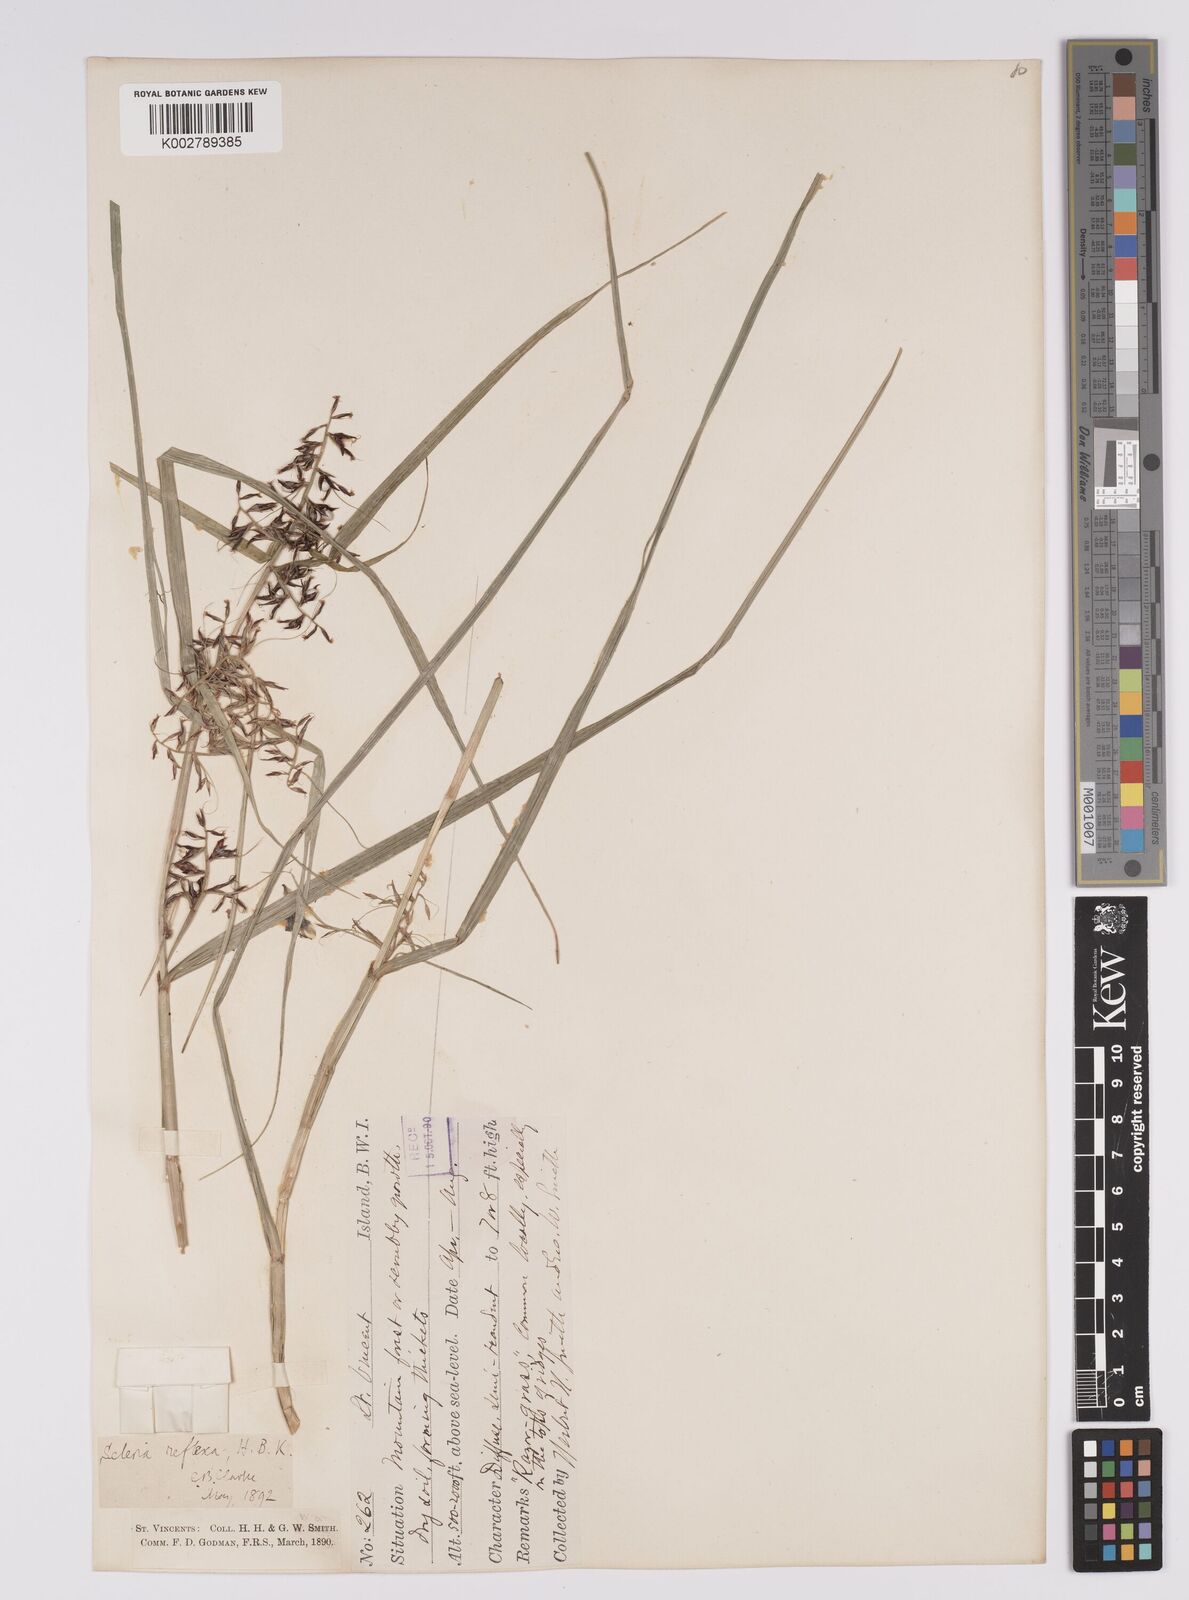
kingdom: Plantae
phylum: Tracheophyta
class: Liliopsida
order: Poales
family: Cyperaceae
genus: Scleria
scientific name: Scleria secans
